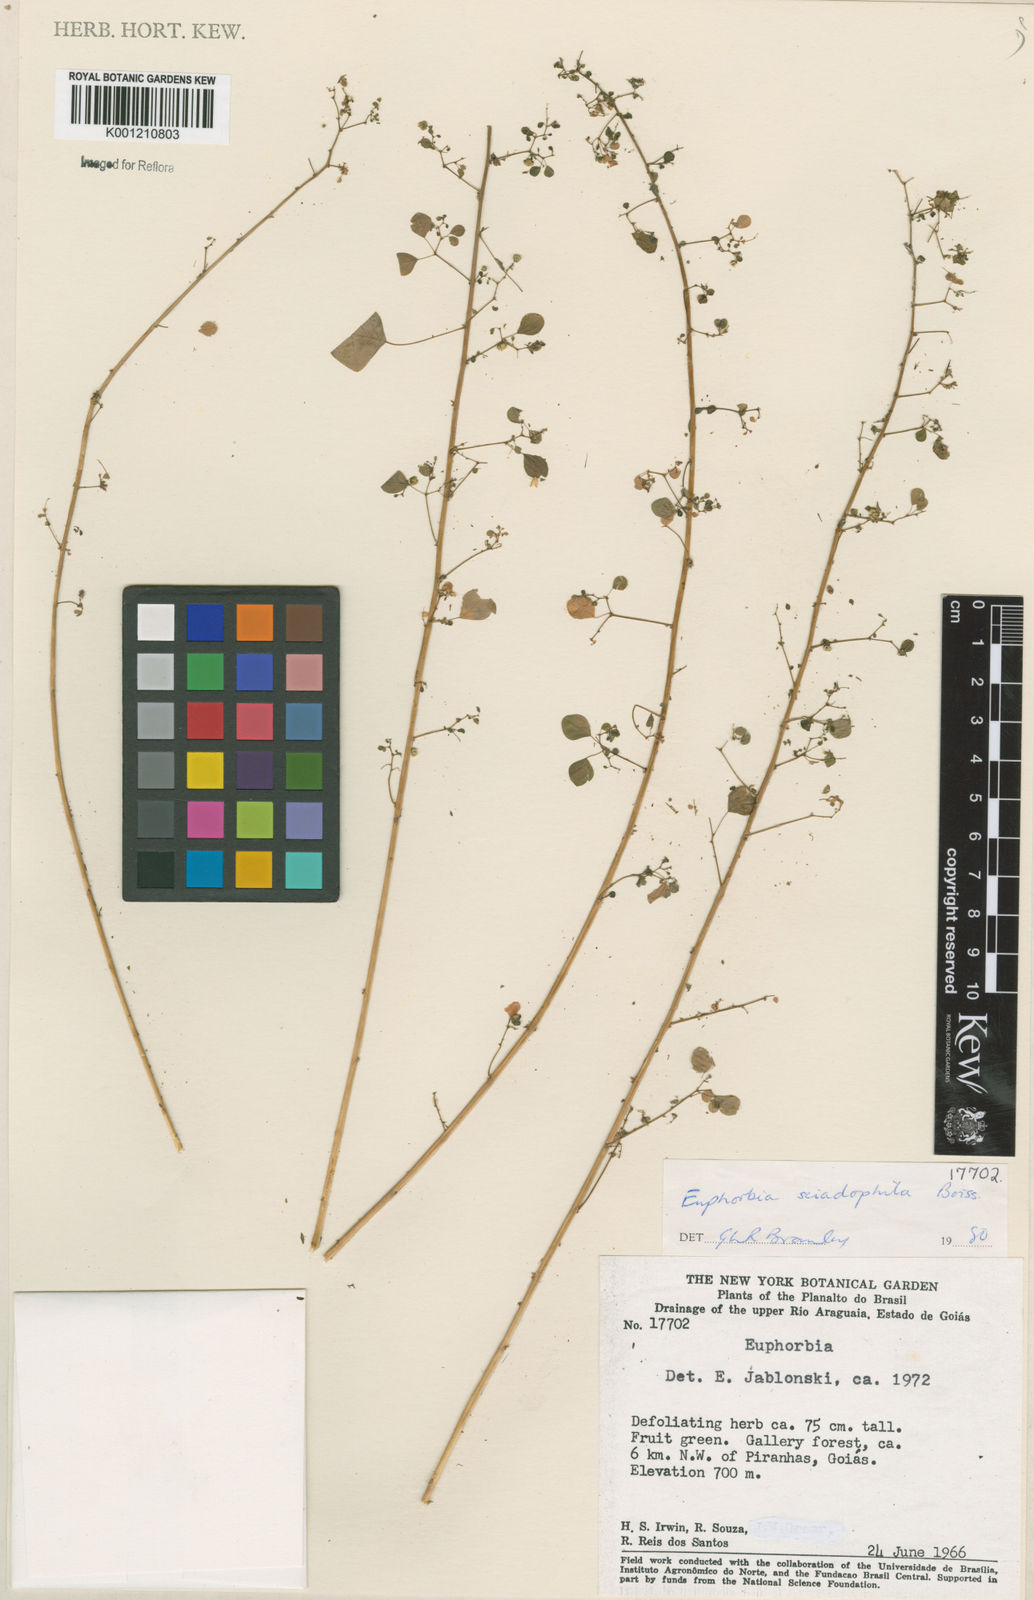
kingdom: Plantae
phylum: Tracheophyta
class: Magnoliopsida
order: Malpighiales
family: Euphorbiaceae
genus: Euphorbia
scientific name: Euphorbia sciadophila
